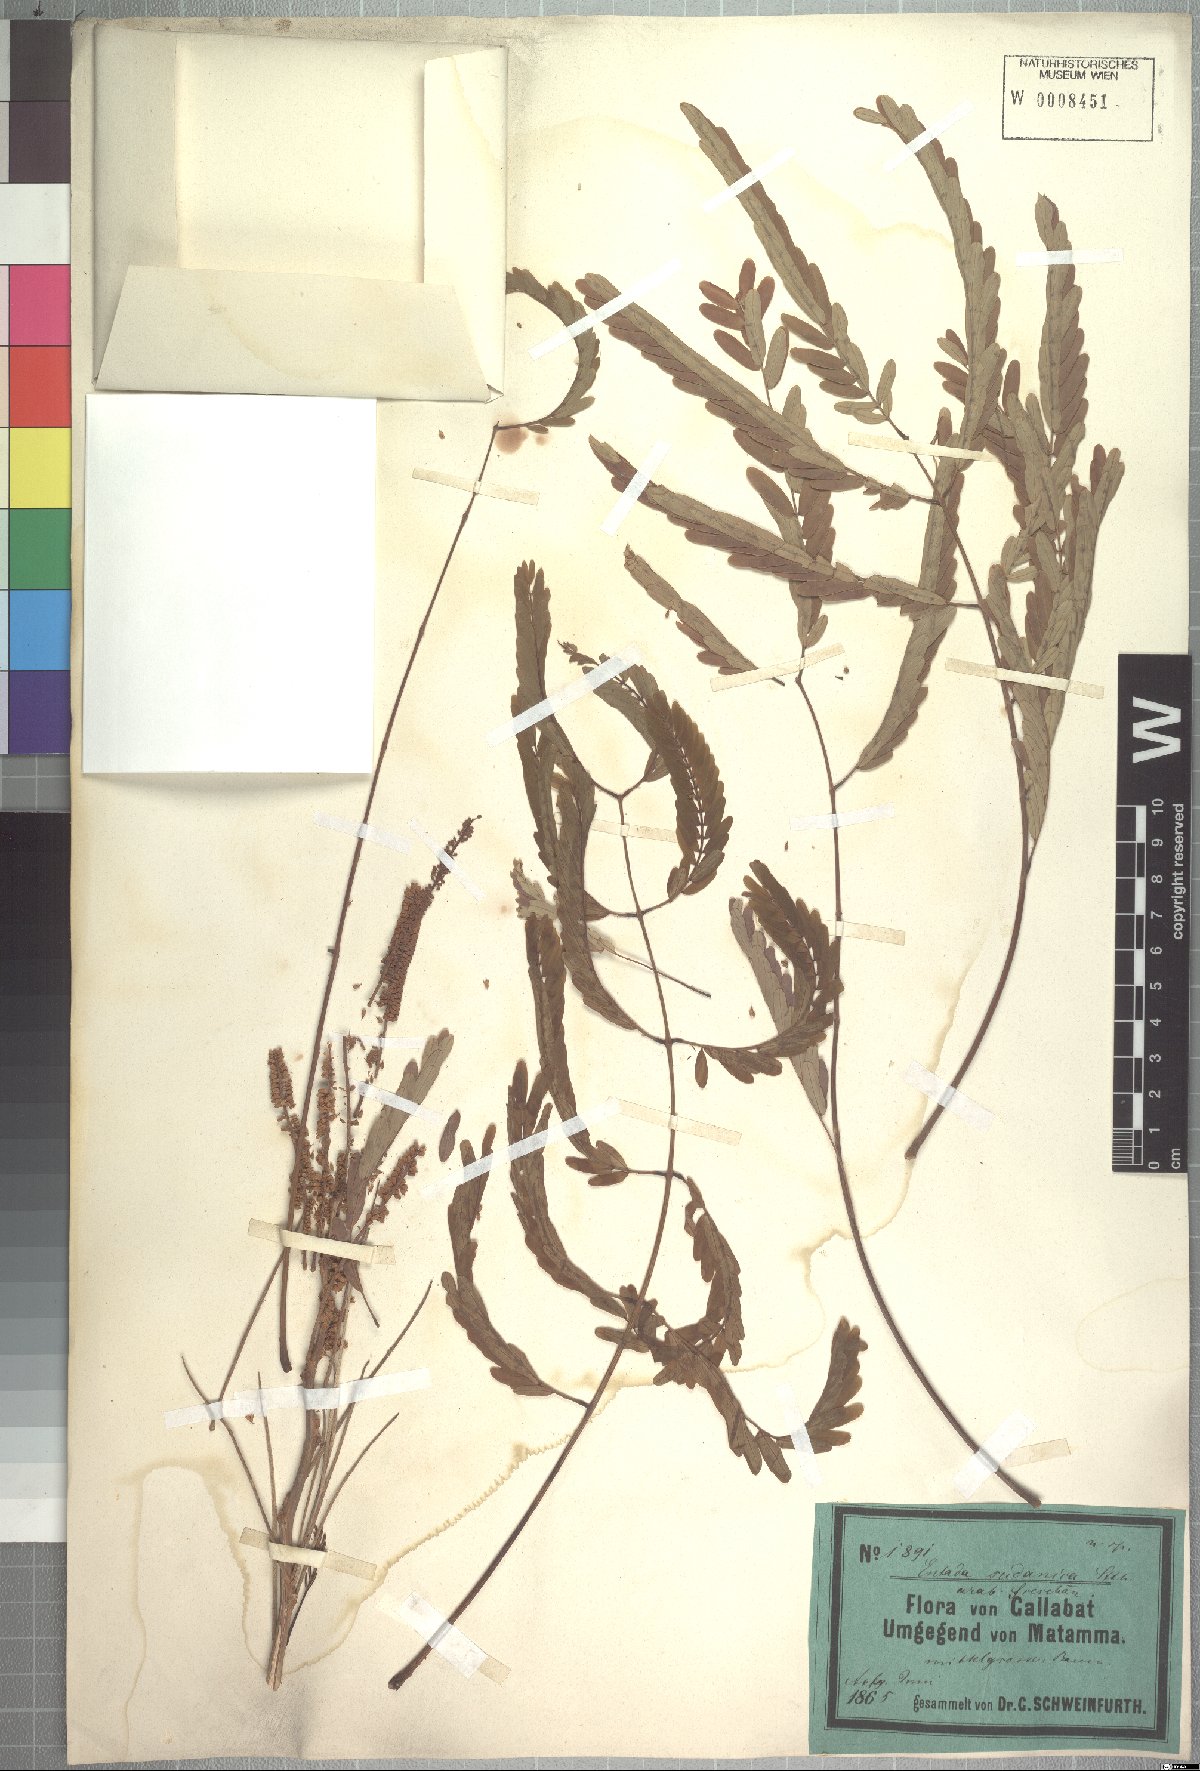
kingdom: Plantae
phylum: Tracheophyta
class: Magnoliopsida
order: Fabales
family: Fabaceae
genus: Entada
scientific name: Entada africana
